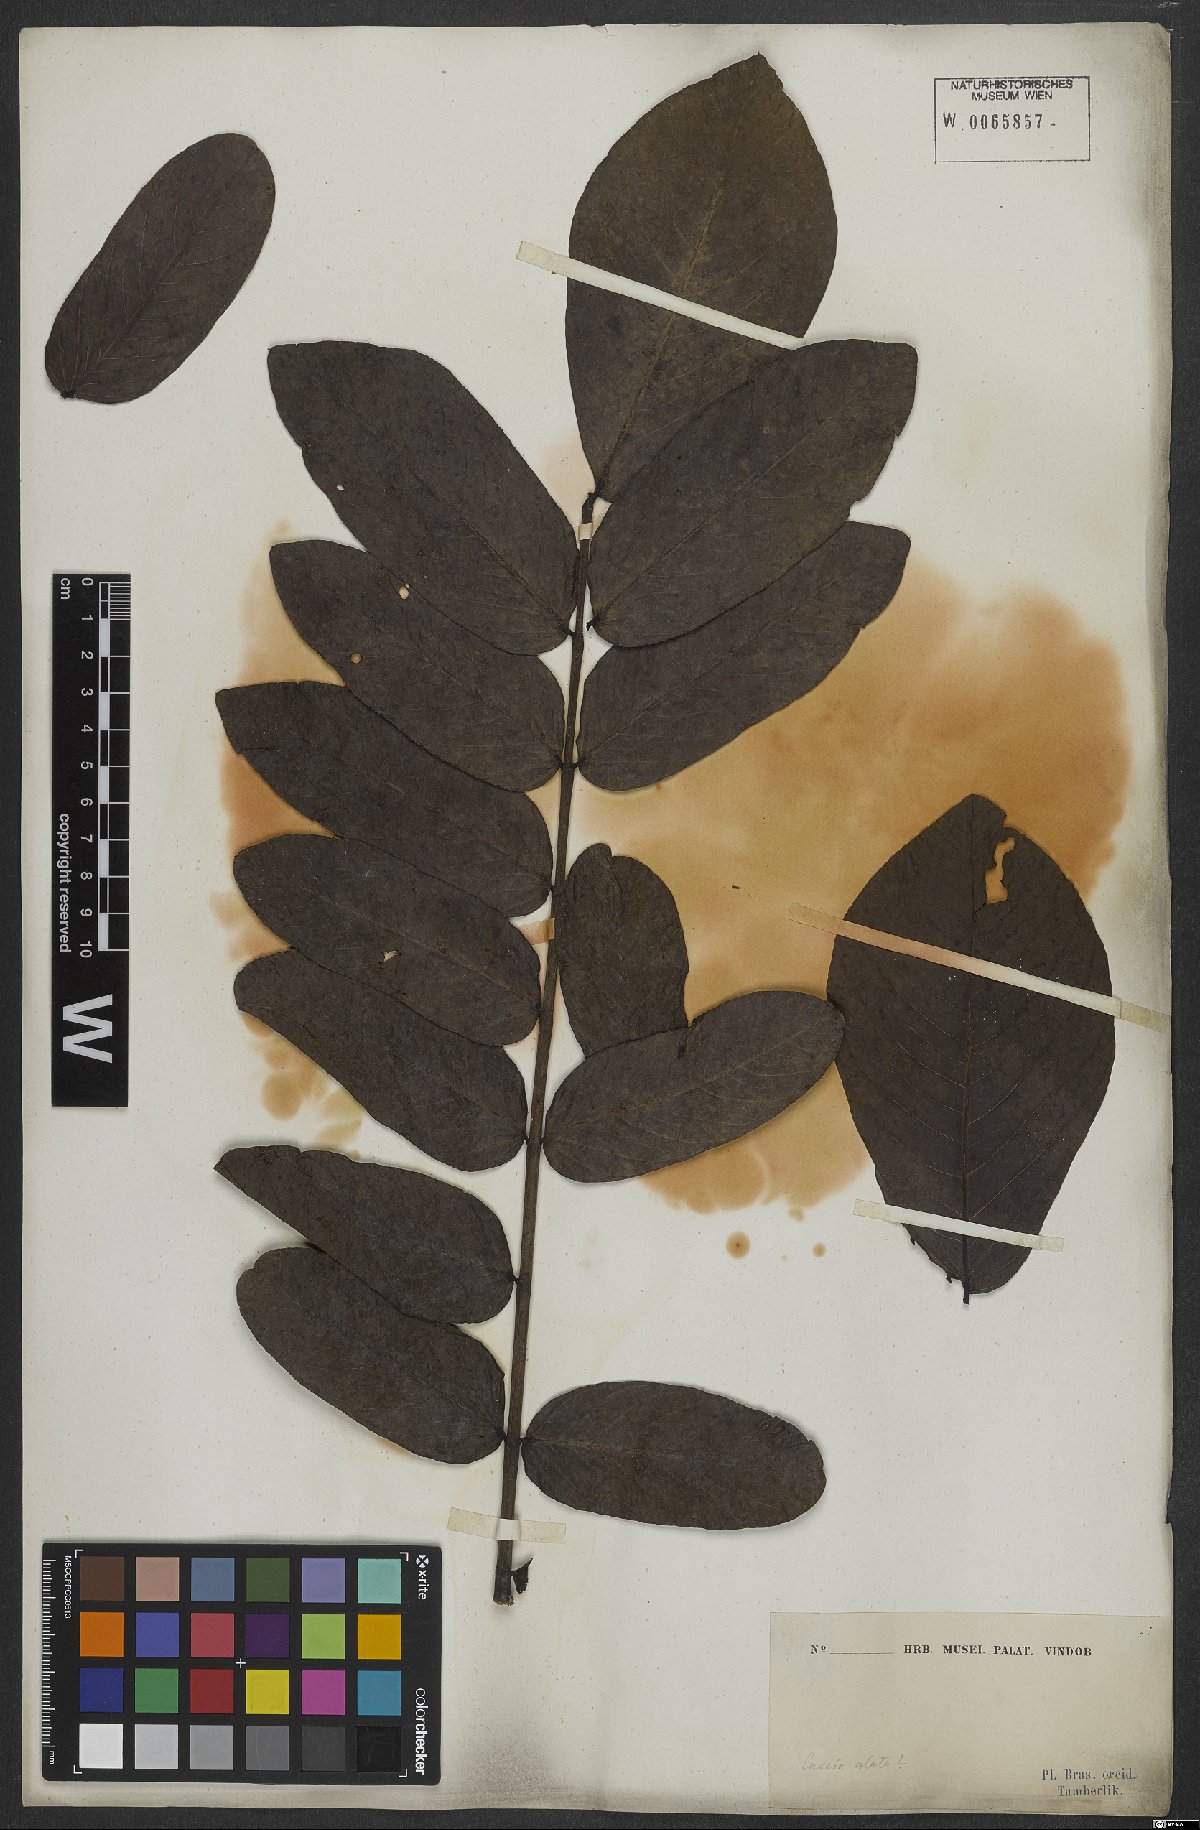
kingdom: Plantae
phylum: Tracheophyta
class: Magnoliopsida
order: Fabales
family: Fabaceae
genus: Senna
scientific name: Senna alata
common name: Emperor's candlesticks
